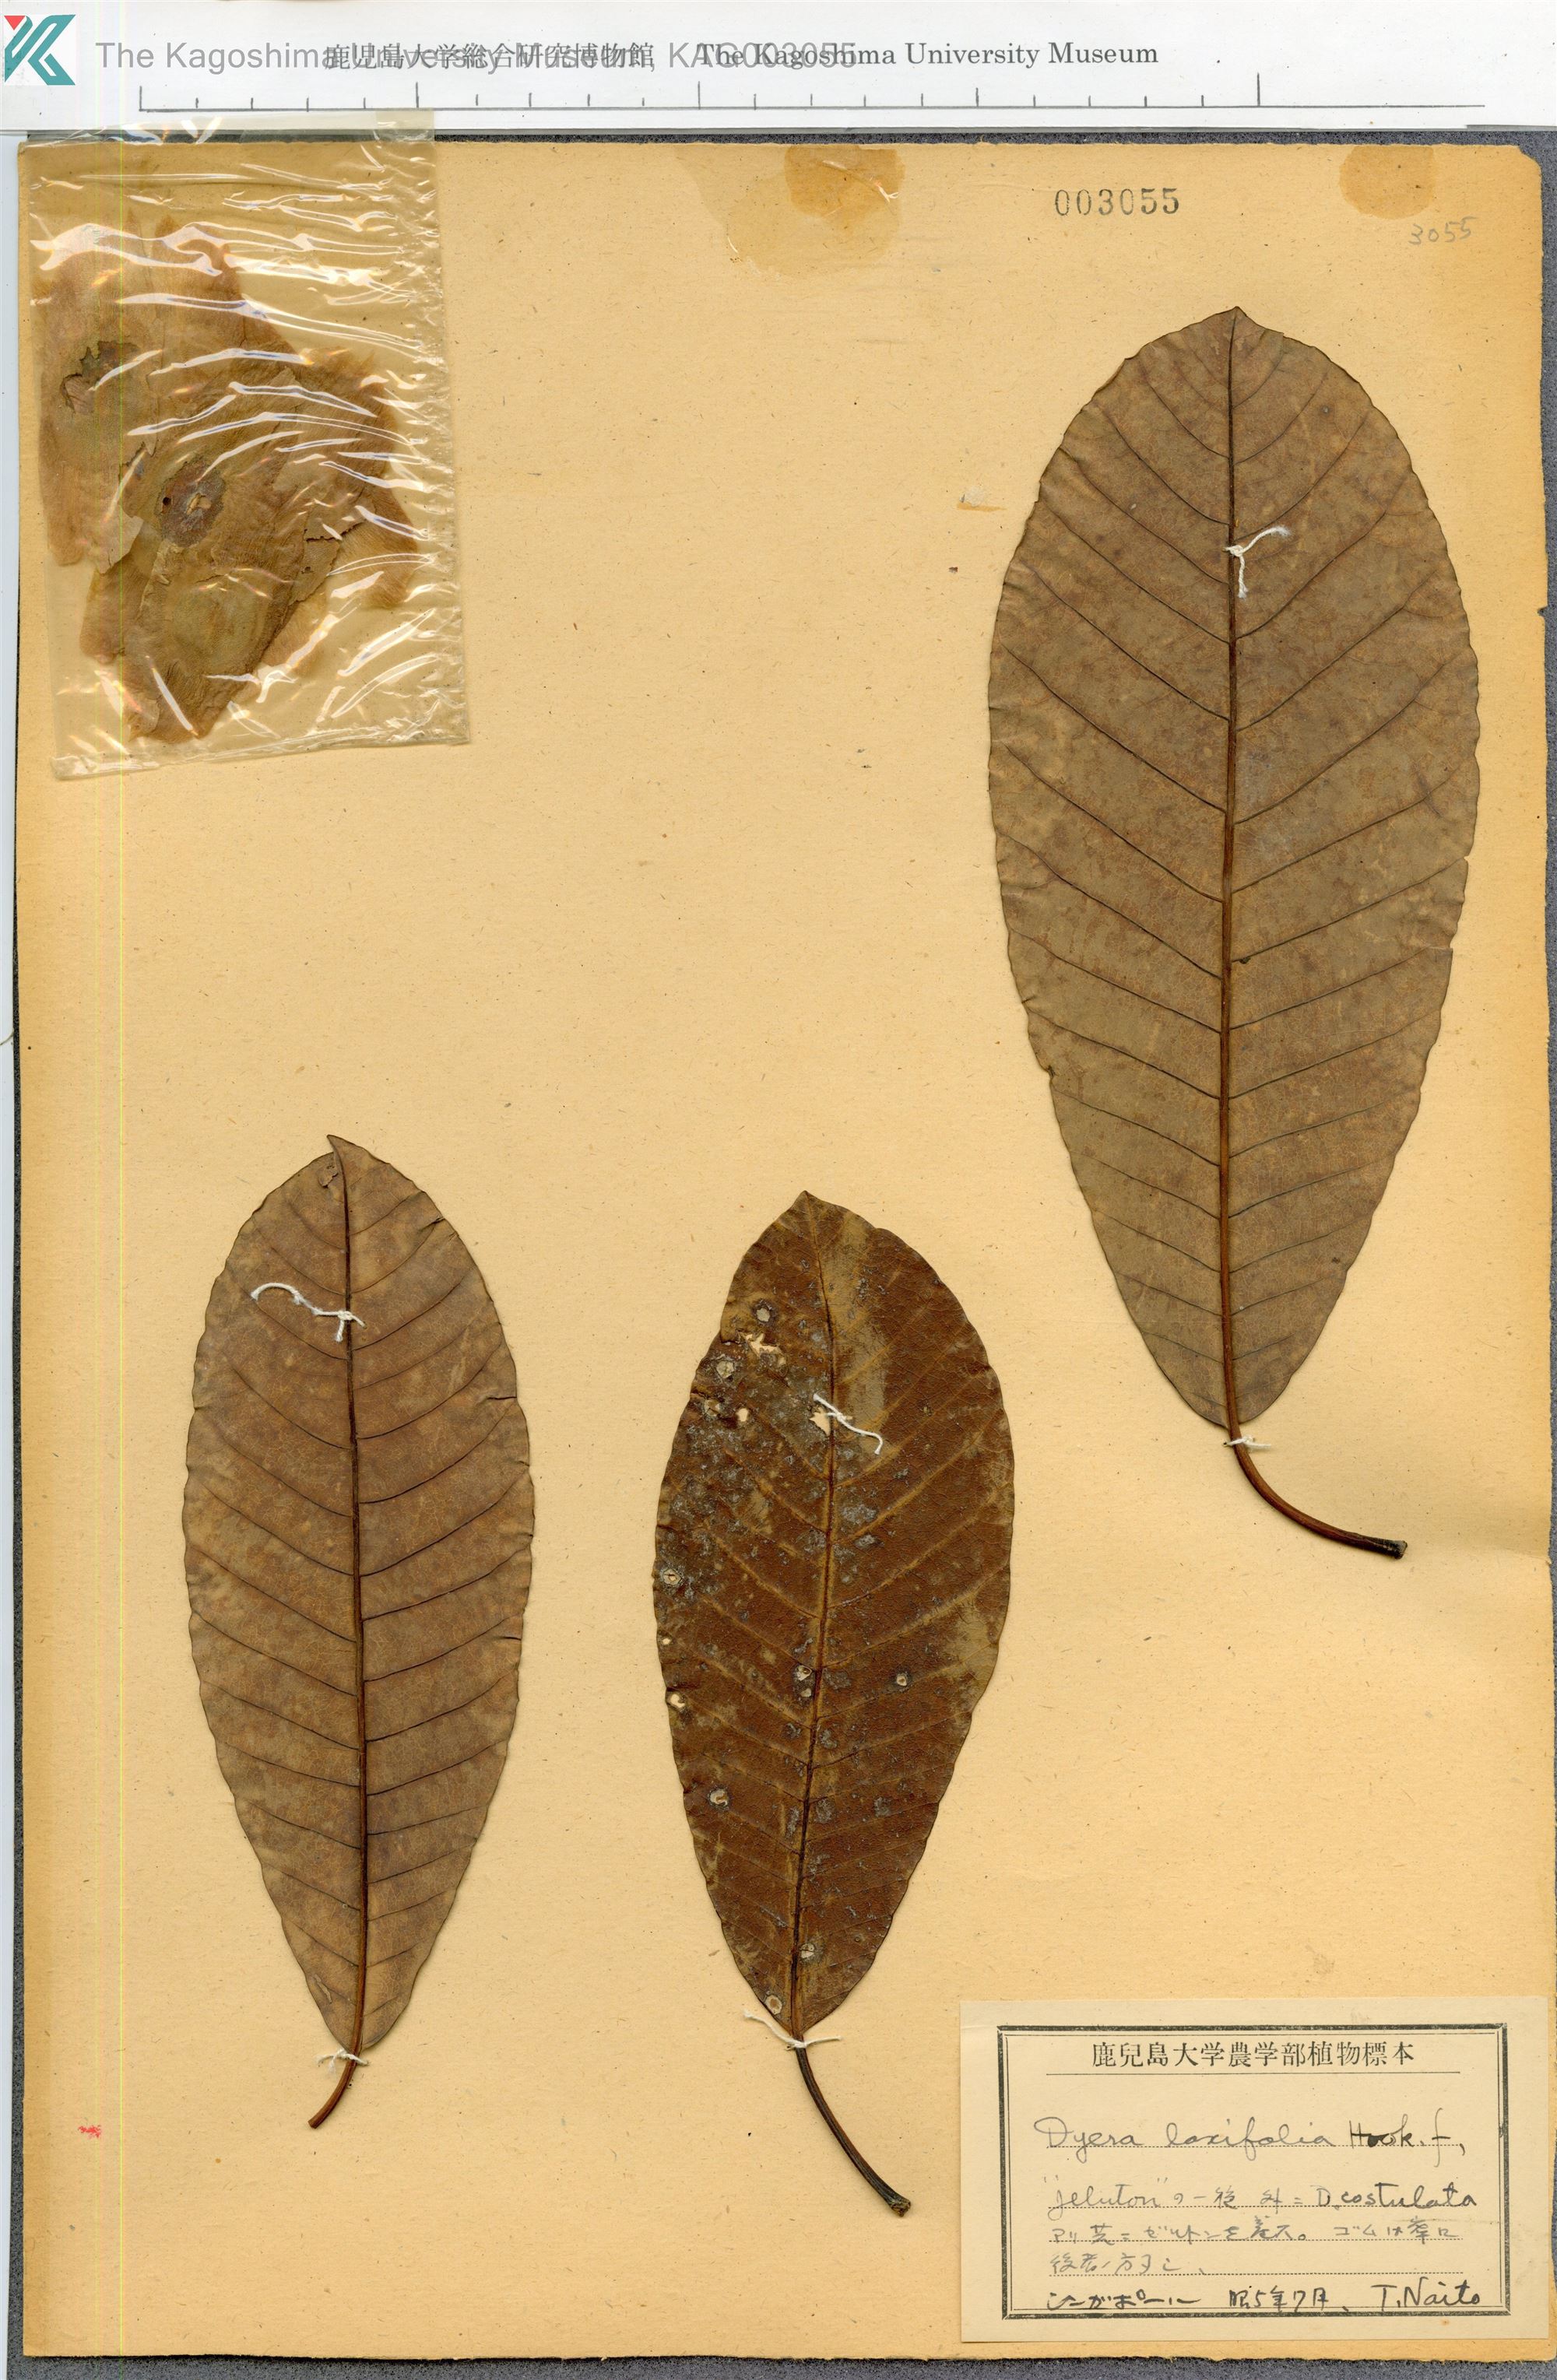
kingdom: Plantae
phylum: Tracheophyta
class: Magnoliopsida
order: Gentianales
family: Apocynaceae
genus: Dyera
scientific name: Dyera costulata
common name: Hill jelutong
